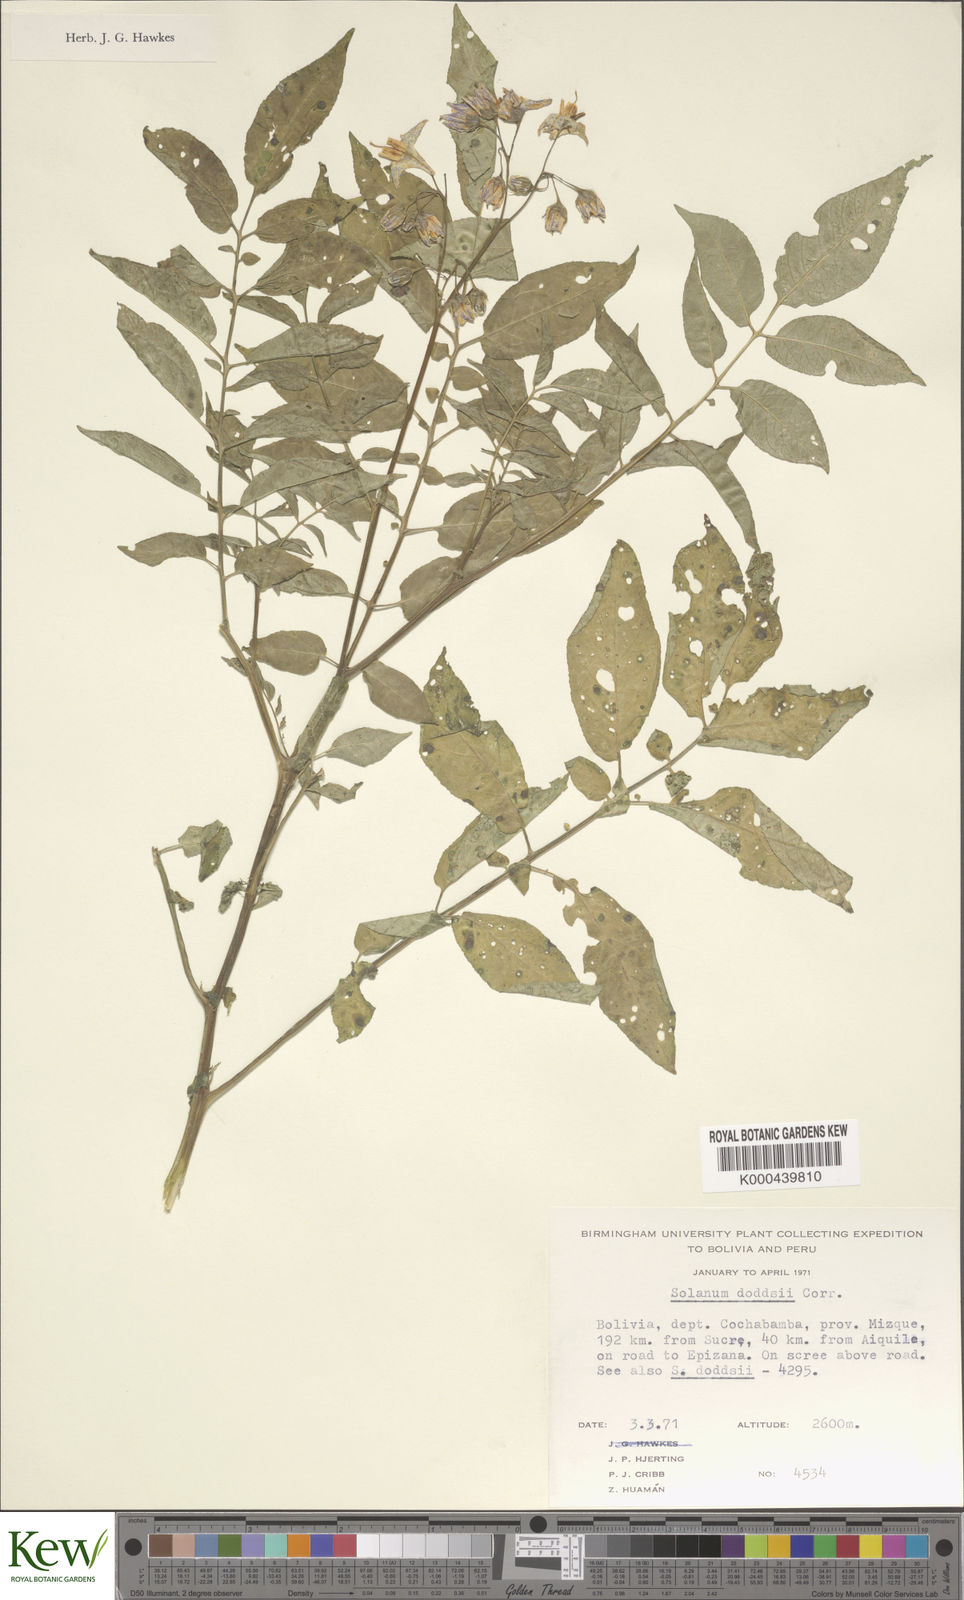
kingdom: Plantae
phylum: Tracheophyta
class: Magnoliopsida
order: Solanales
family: Solanaceae
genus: Solanum
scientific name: Solanum doddsii
